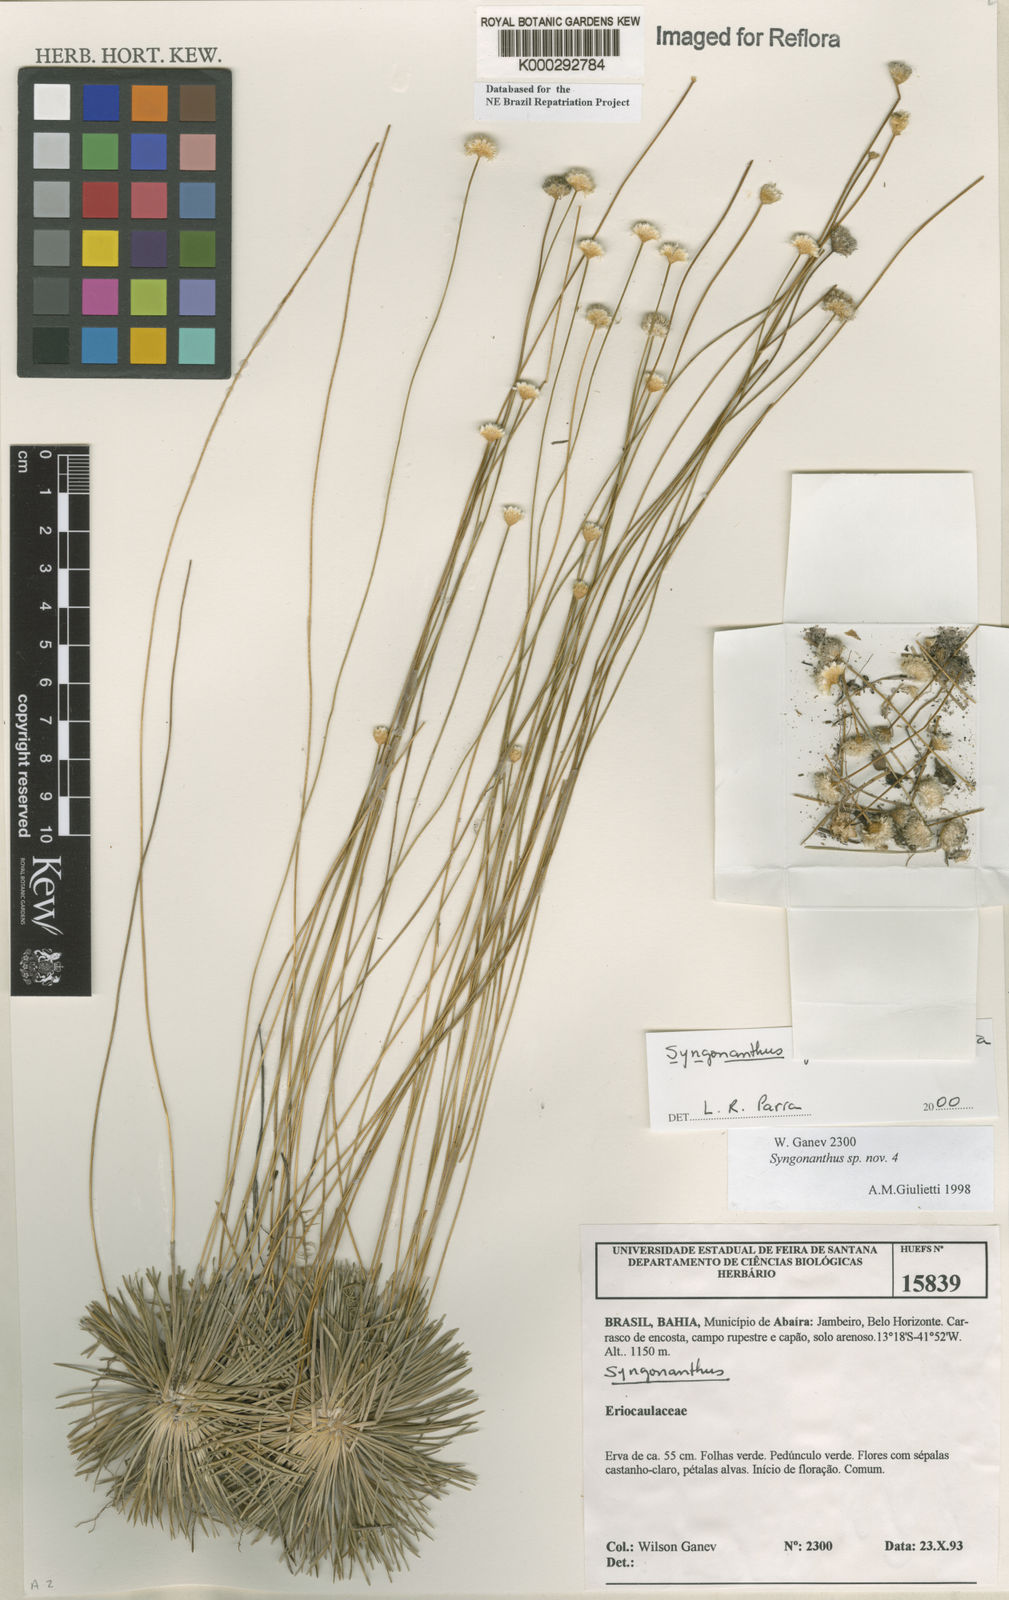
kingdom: Plantae
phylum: Tracheophyta
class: Liliopsida
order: Poales
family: Eriocaulaceae
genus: Syngonanthus
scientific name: Syngonanthus
